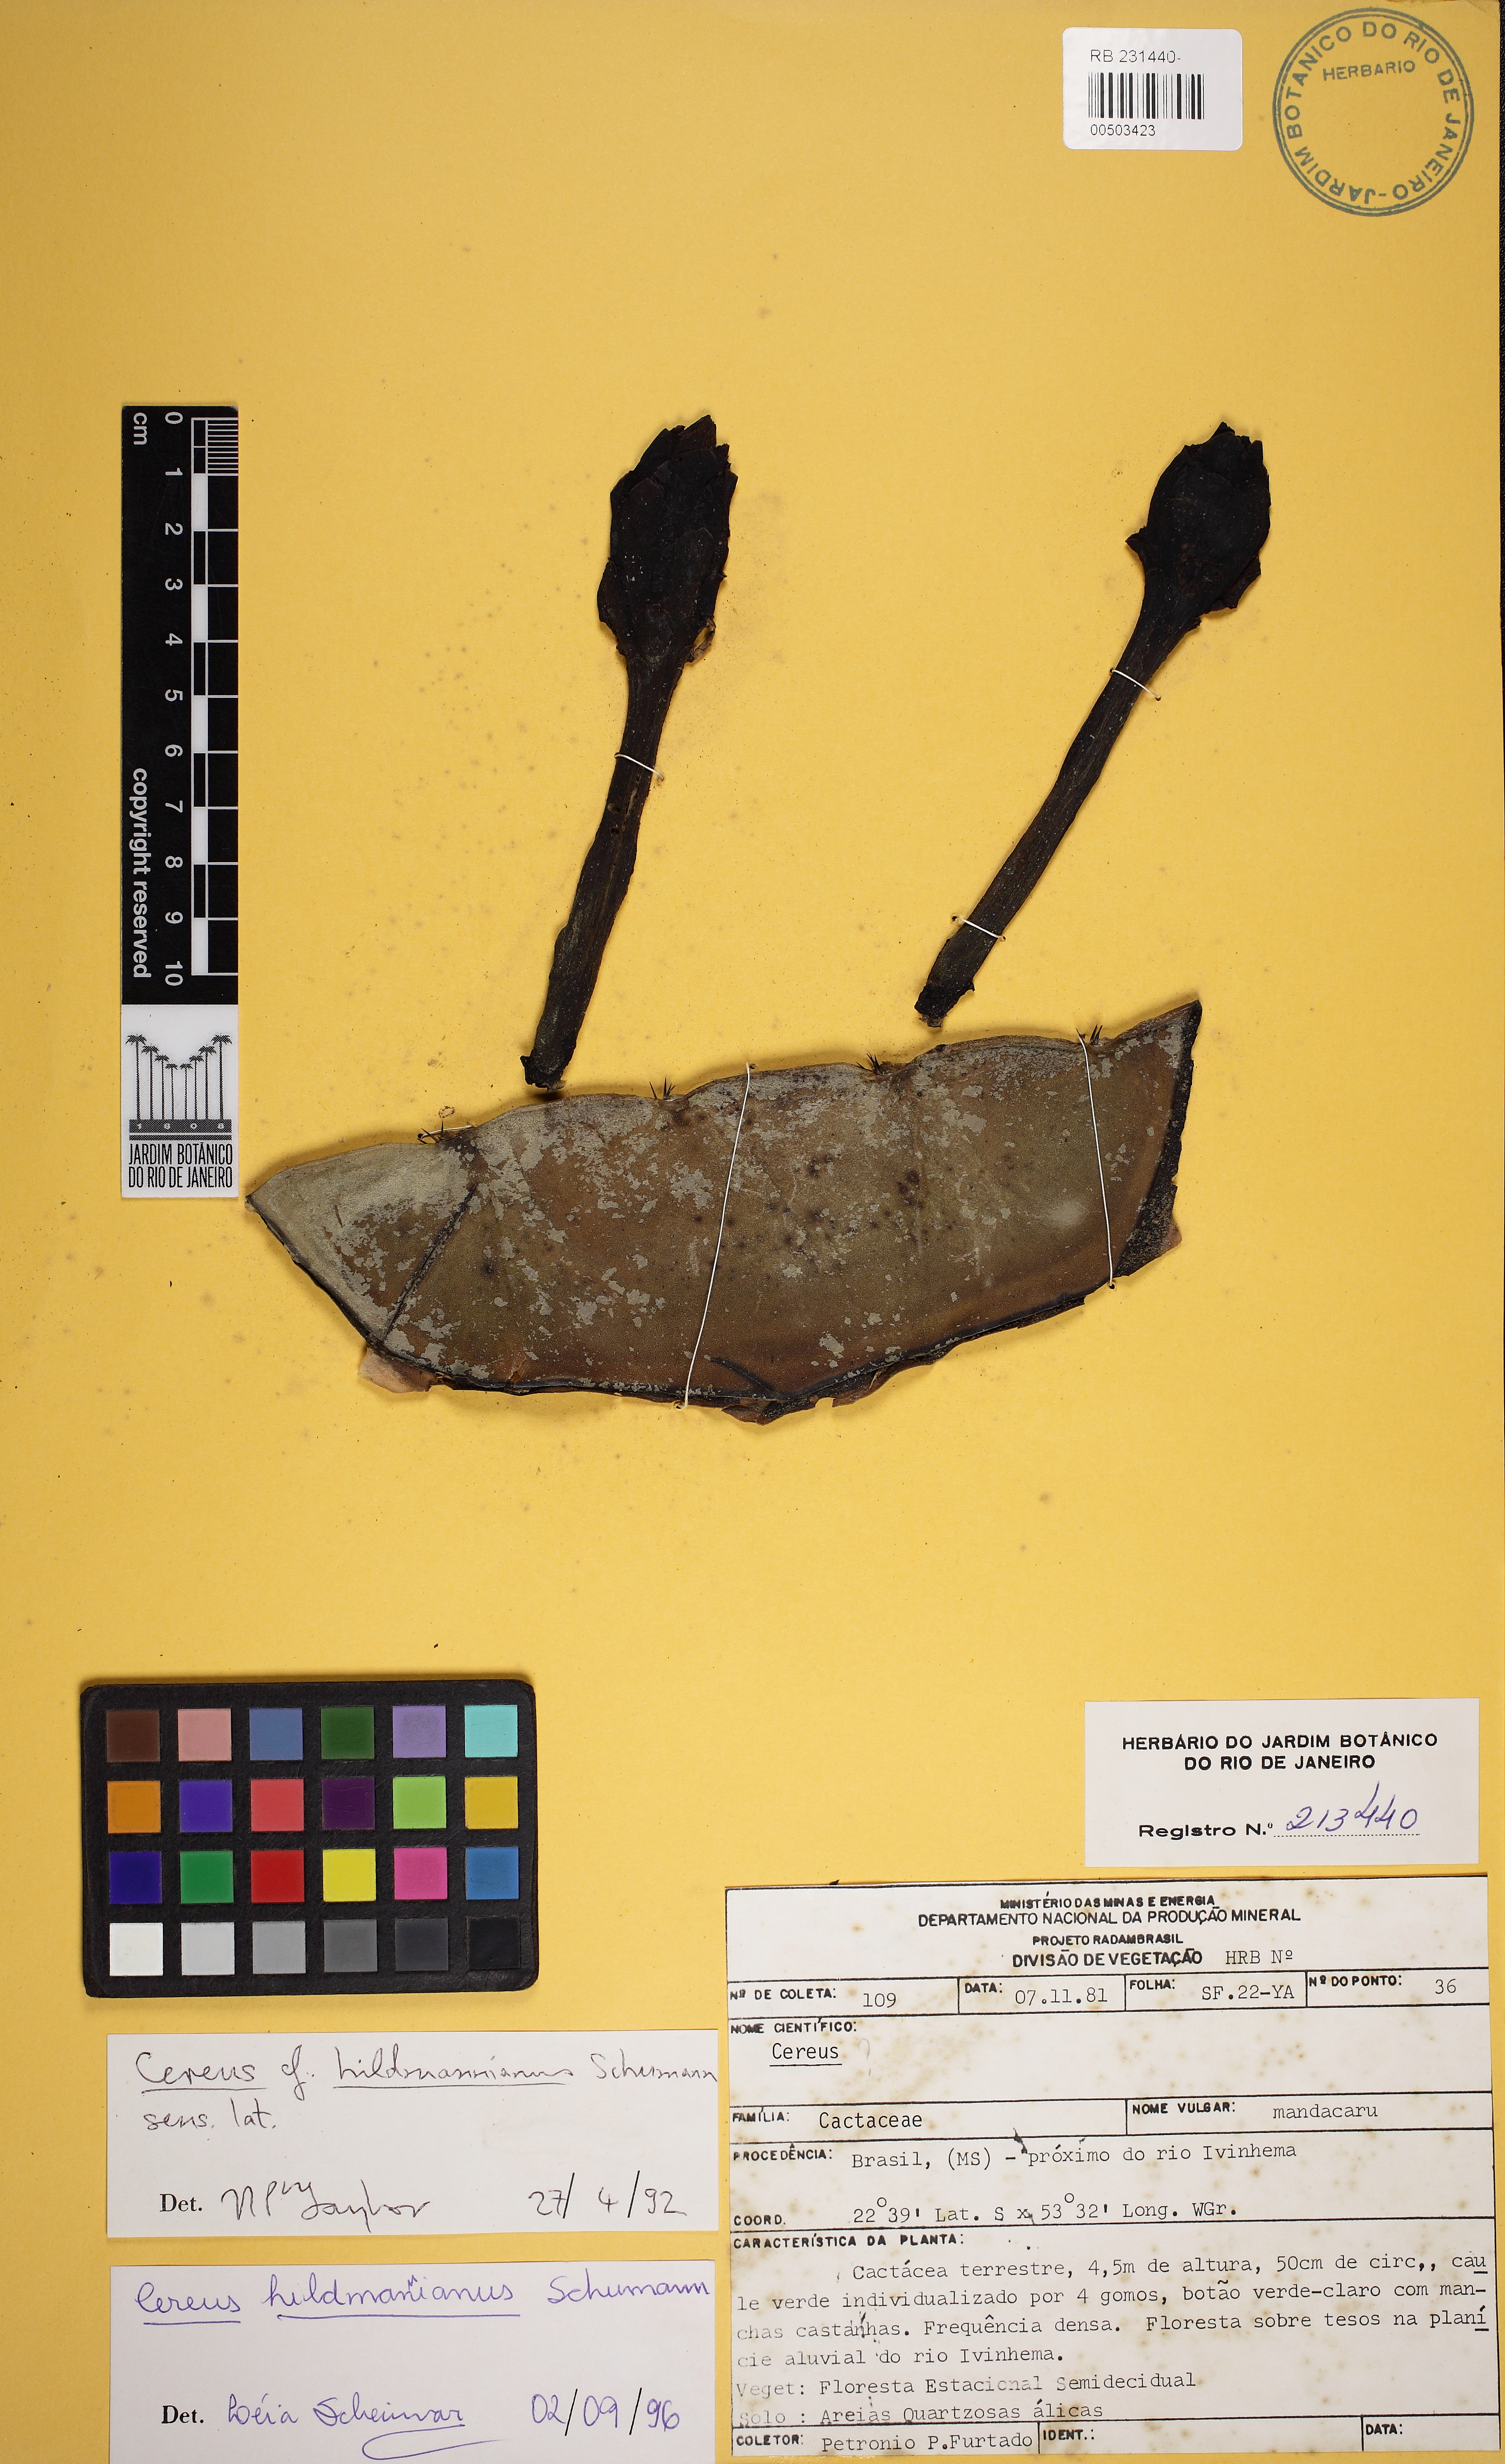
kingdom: Plantae
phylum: Tracheophyta
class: Magnoliopsida
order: Caryophyllales
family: Cactaceae
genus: Cereus
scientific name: Cereus hildmannianus
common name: Hedge cactus
